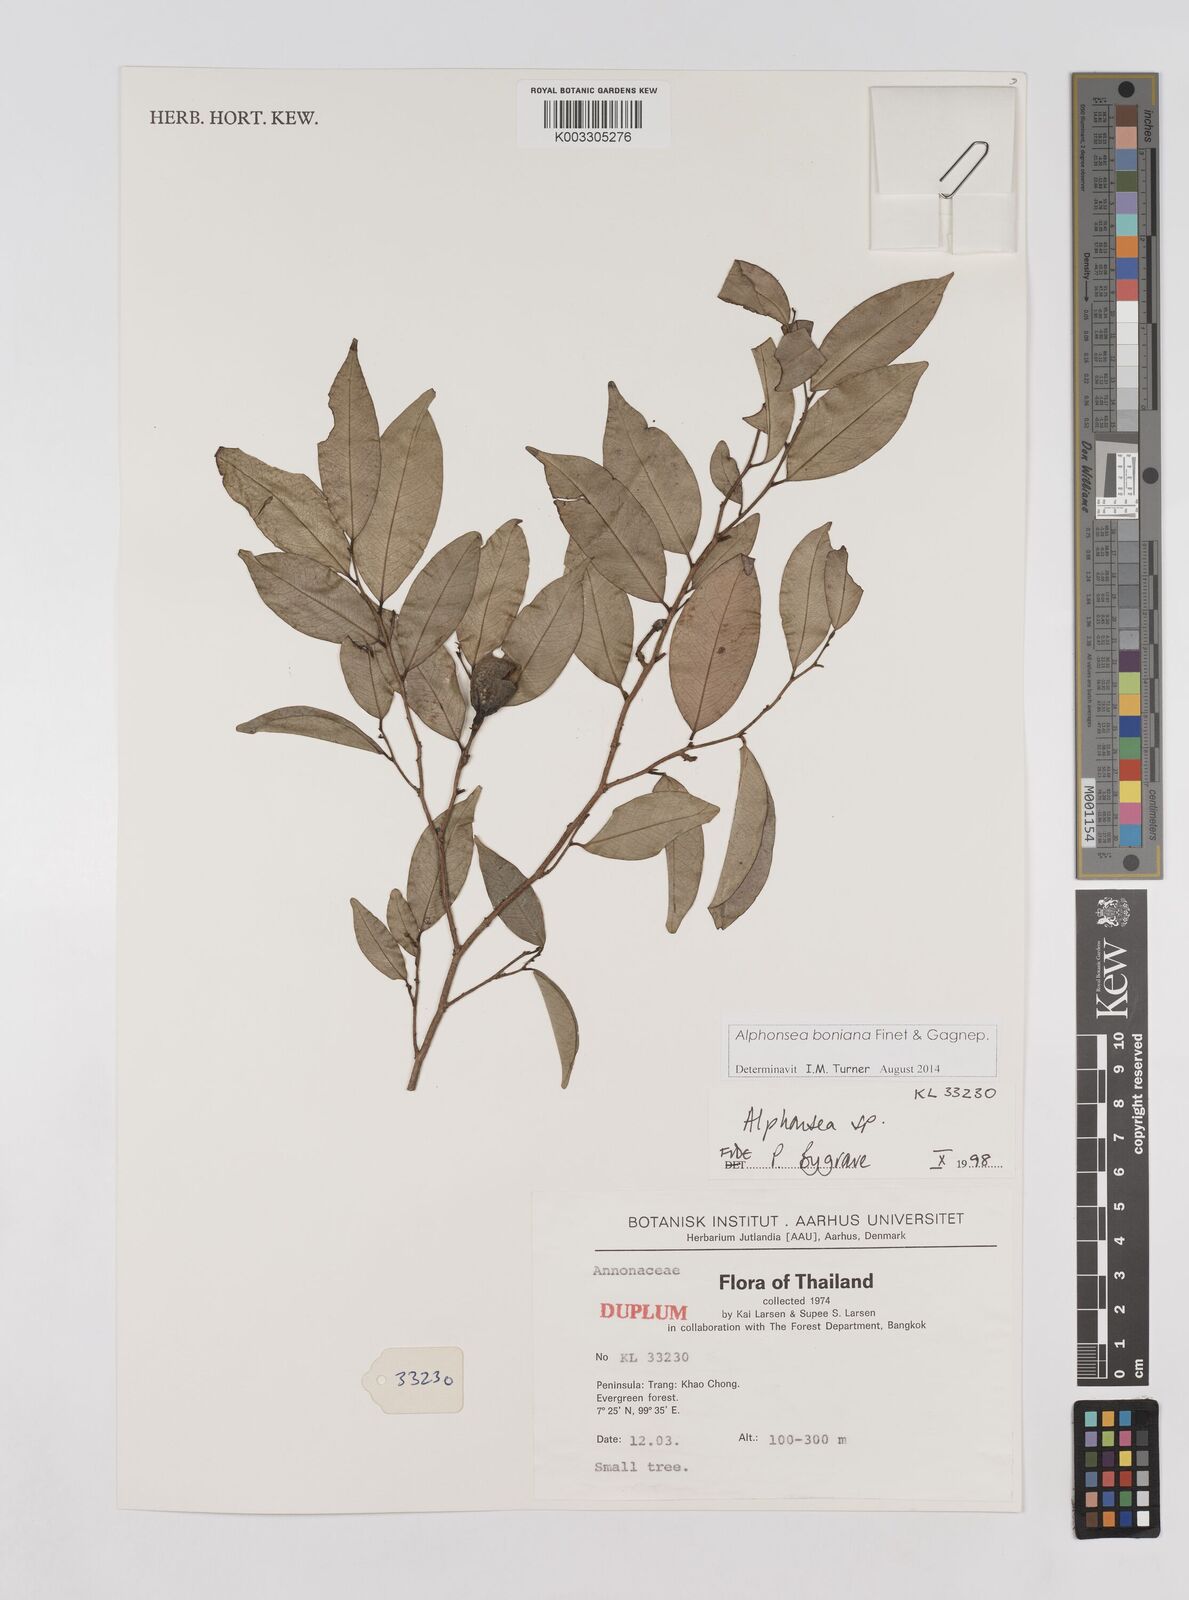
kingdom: Plantae
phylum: Tracheophyta
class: Magnoliopsida
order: Magnoliales
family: Annonaceae
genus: Alphonsea
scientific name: Alphonsea boniana
